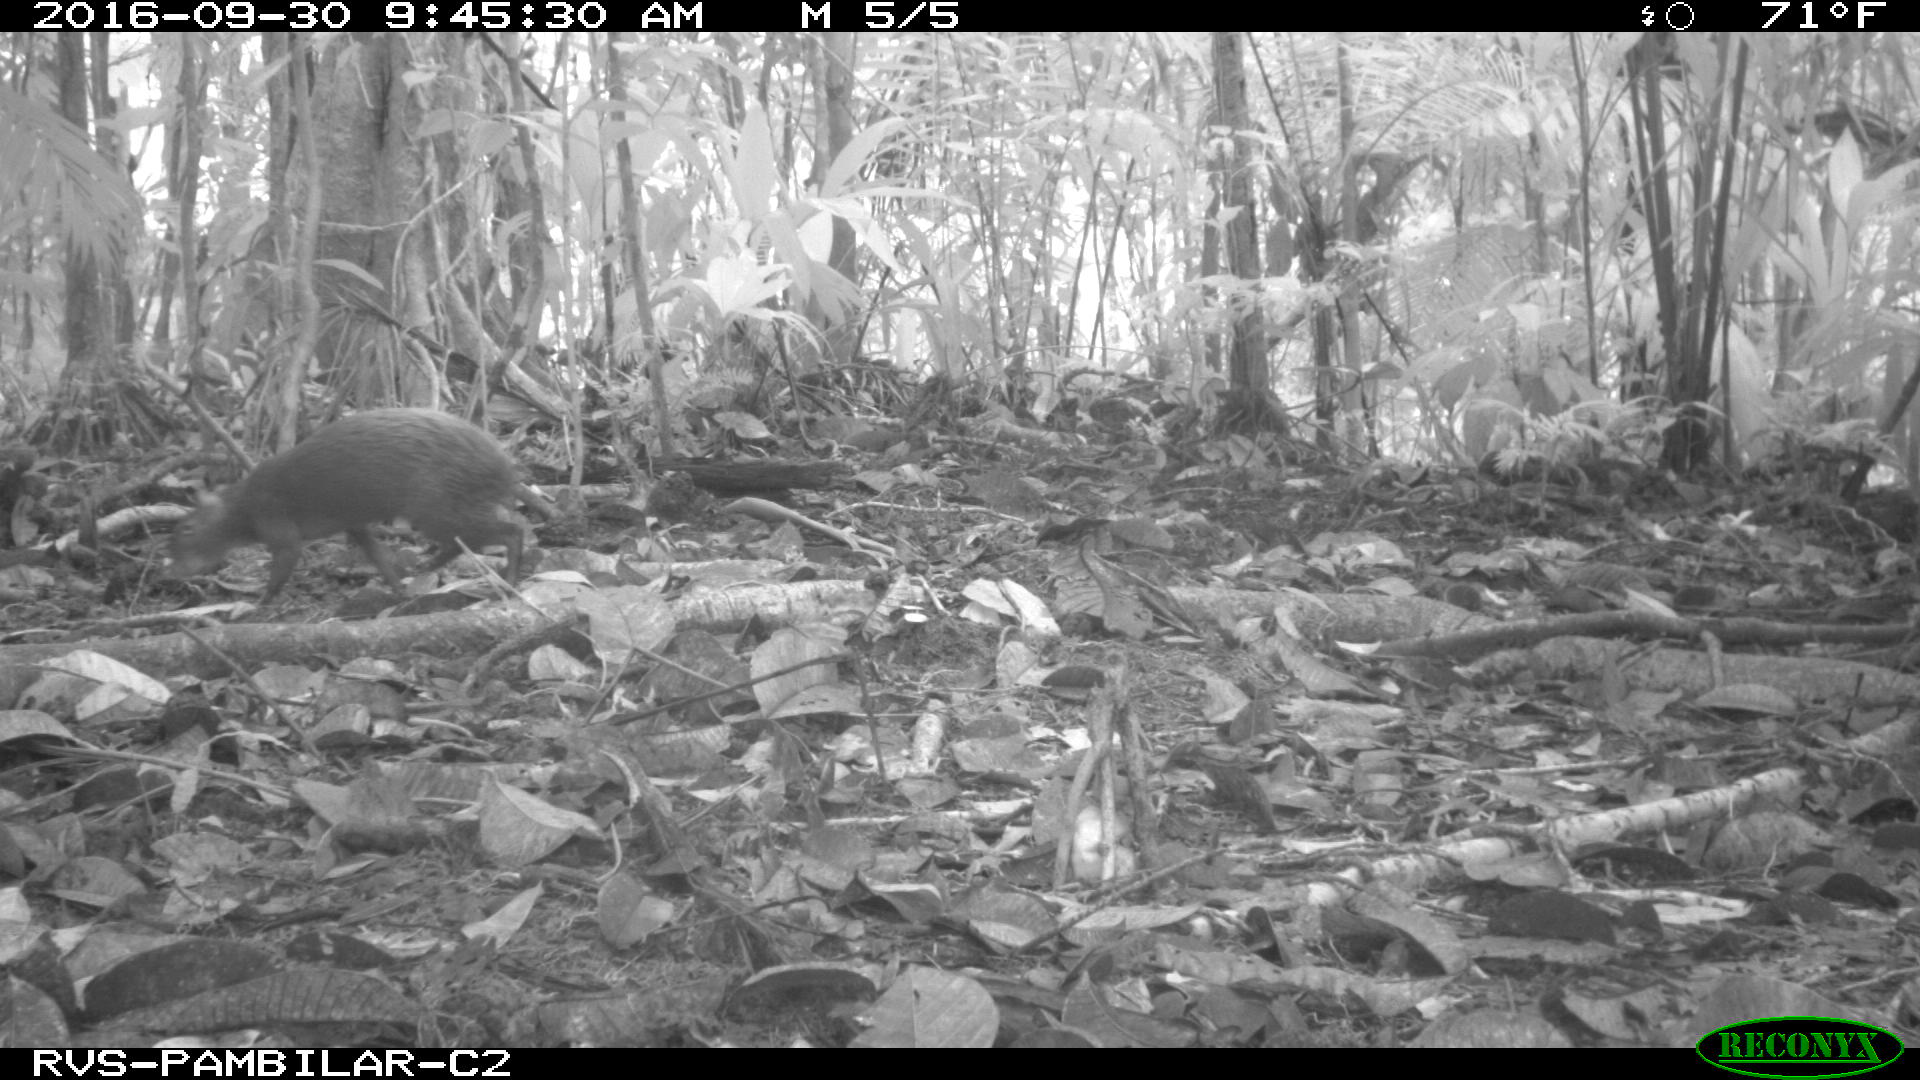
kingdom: Animalia
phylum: Chordata
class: Mammalia
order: Rodentia
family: Dasyproctidae
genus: Dasyprocta
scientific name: Dasyprocta punctata
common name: Central american agouti
